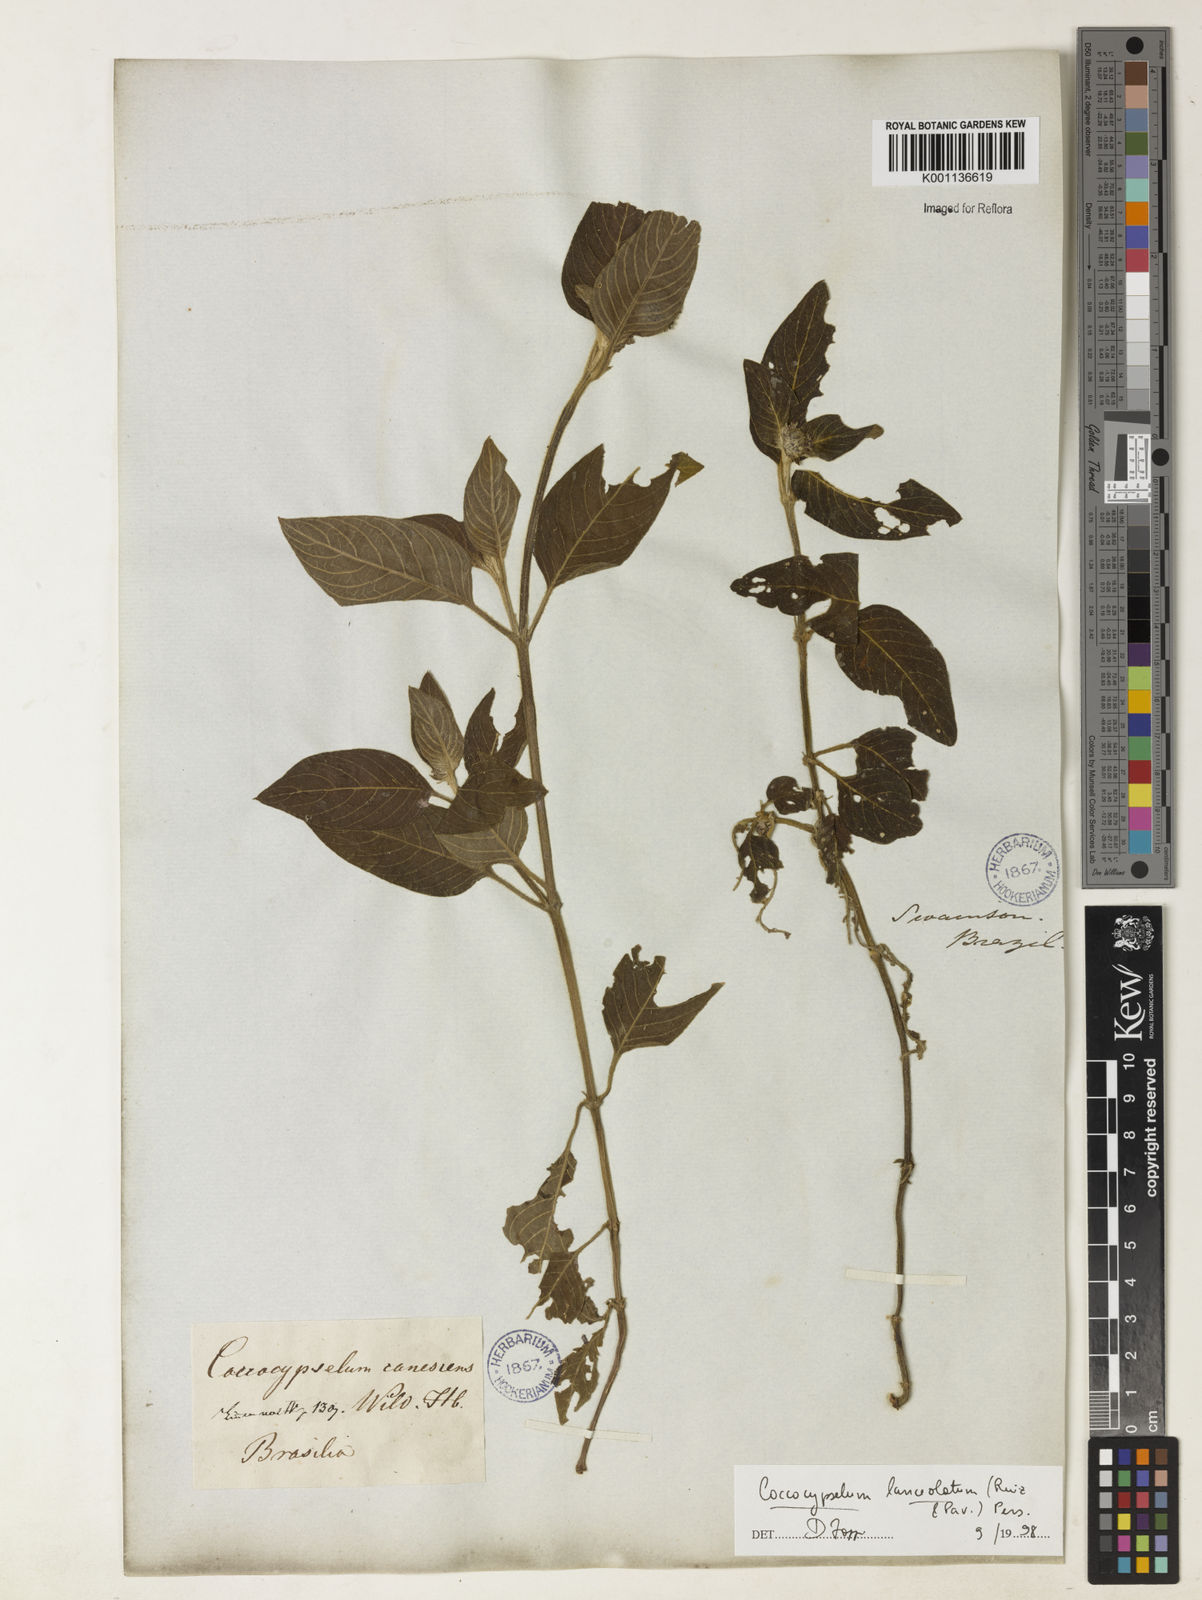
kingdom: Plantae
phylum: Tracheophyta
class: Magnoliopsida
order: Gentianales
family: Rubiaceae
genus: Coccocypselum
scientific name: Coccocypselum lanceolatum
